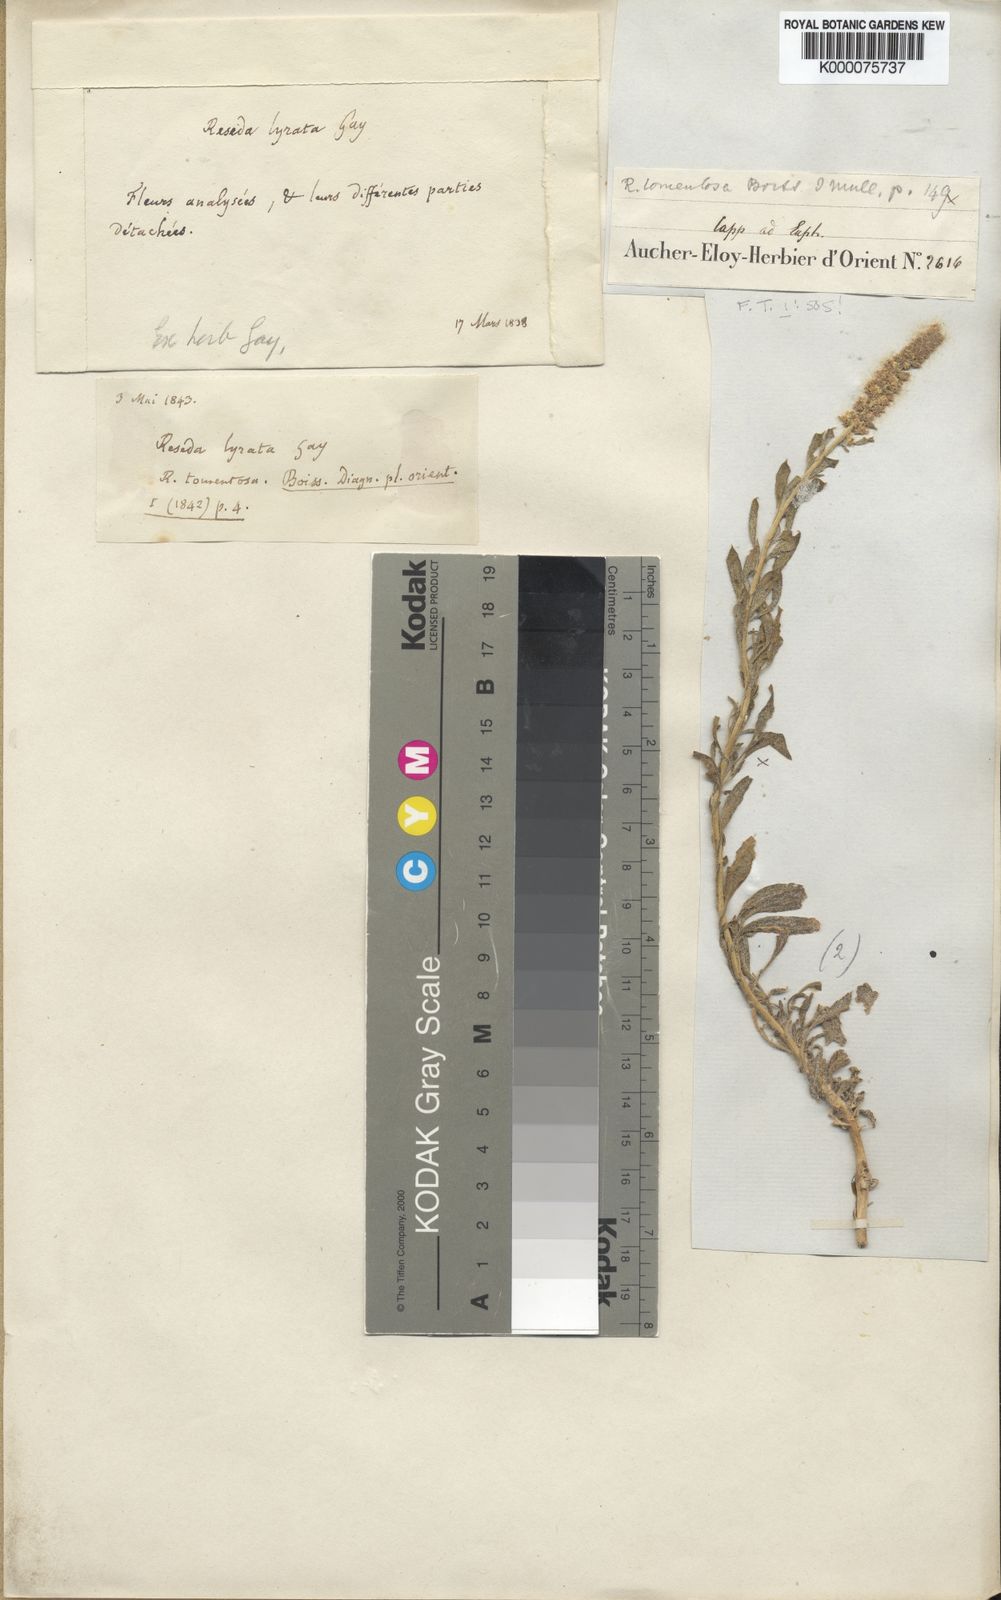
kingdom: Plantae
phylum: Tracheophyta
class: Magnoliopsida
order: Brassicales
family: Resedaceae
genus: Reseda
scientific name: Reseda tomentosa
